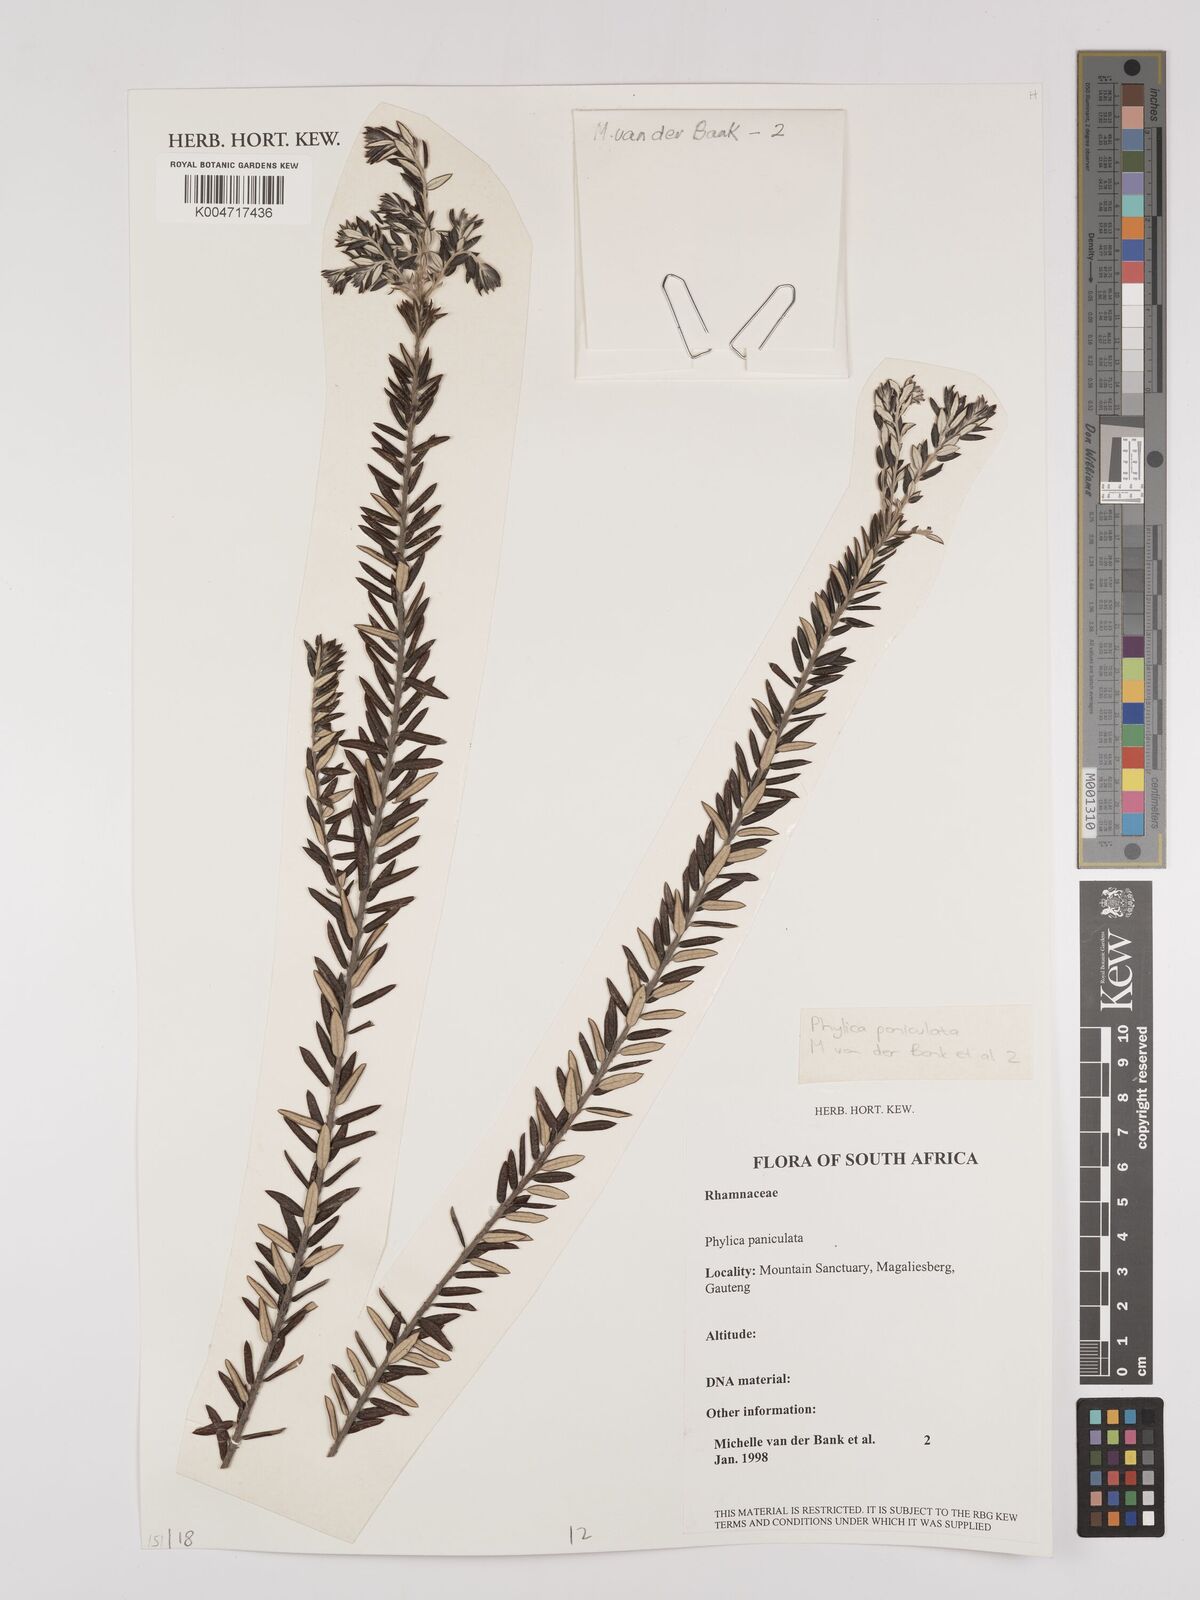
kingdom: Plantae
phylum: Tracheophyta
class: Magnoliopsida
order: Rosales
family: Rhamnaceae
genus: Phylica
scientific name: Phylica paniculata
